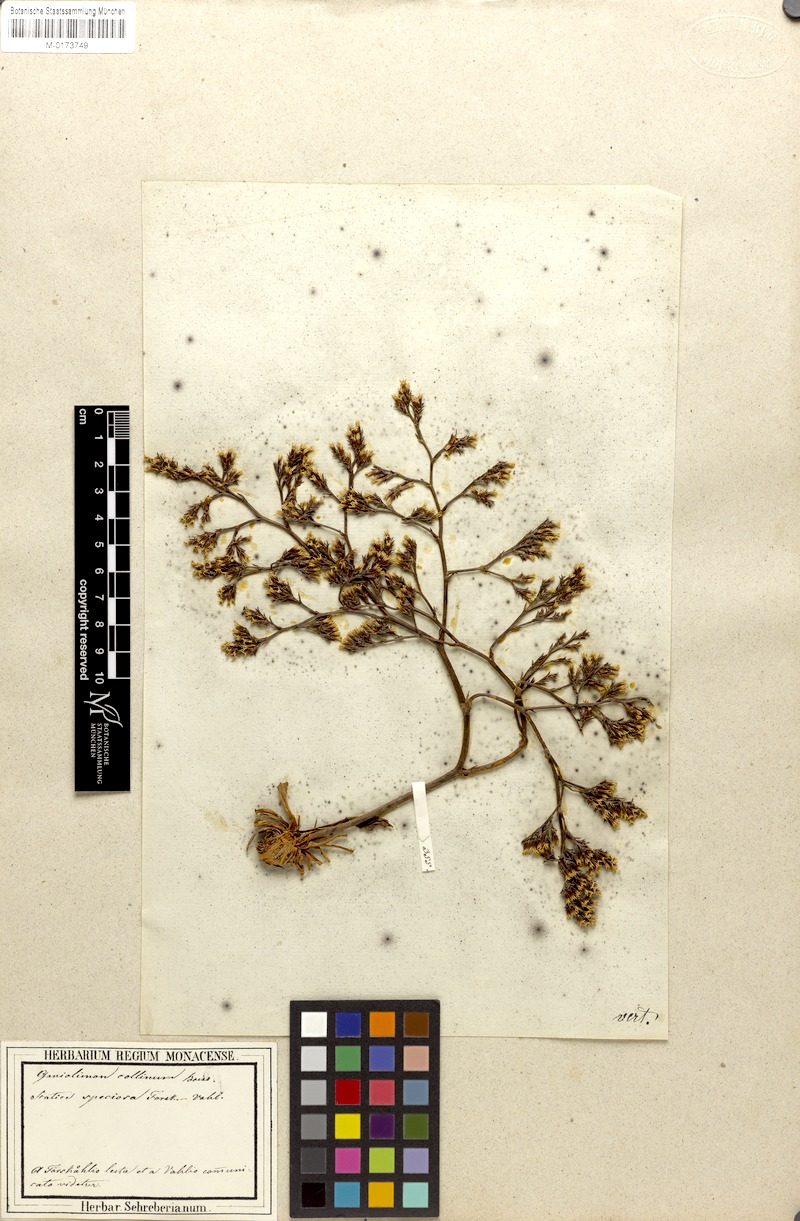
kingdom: Plantae
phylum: Tracheophyta
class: Magnoliopsida
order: Caryophyllales
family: Plumbaginaceae
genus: Goniolimon
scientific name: Goniolimon speciosum
